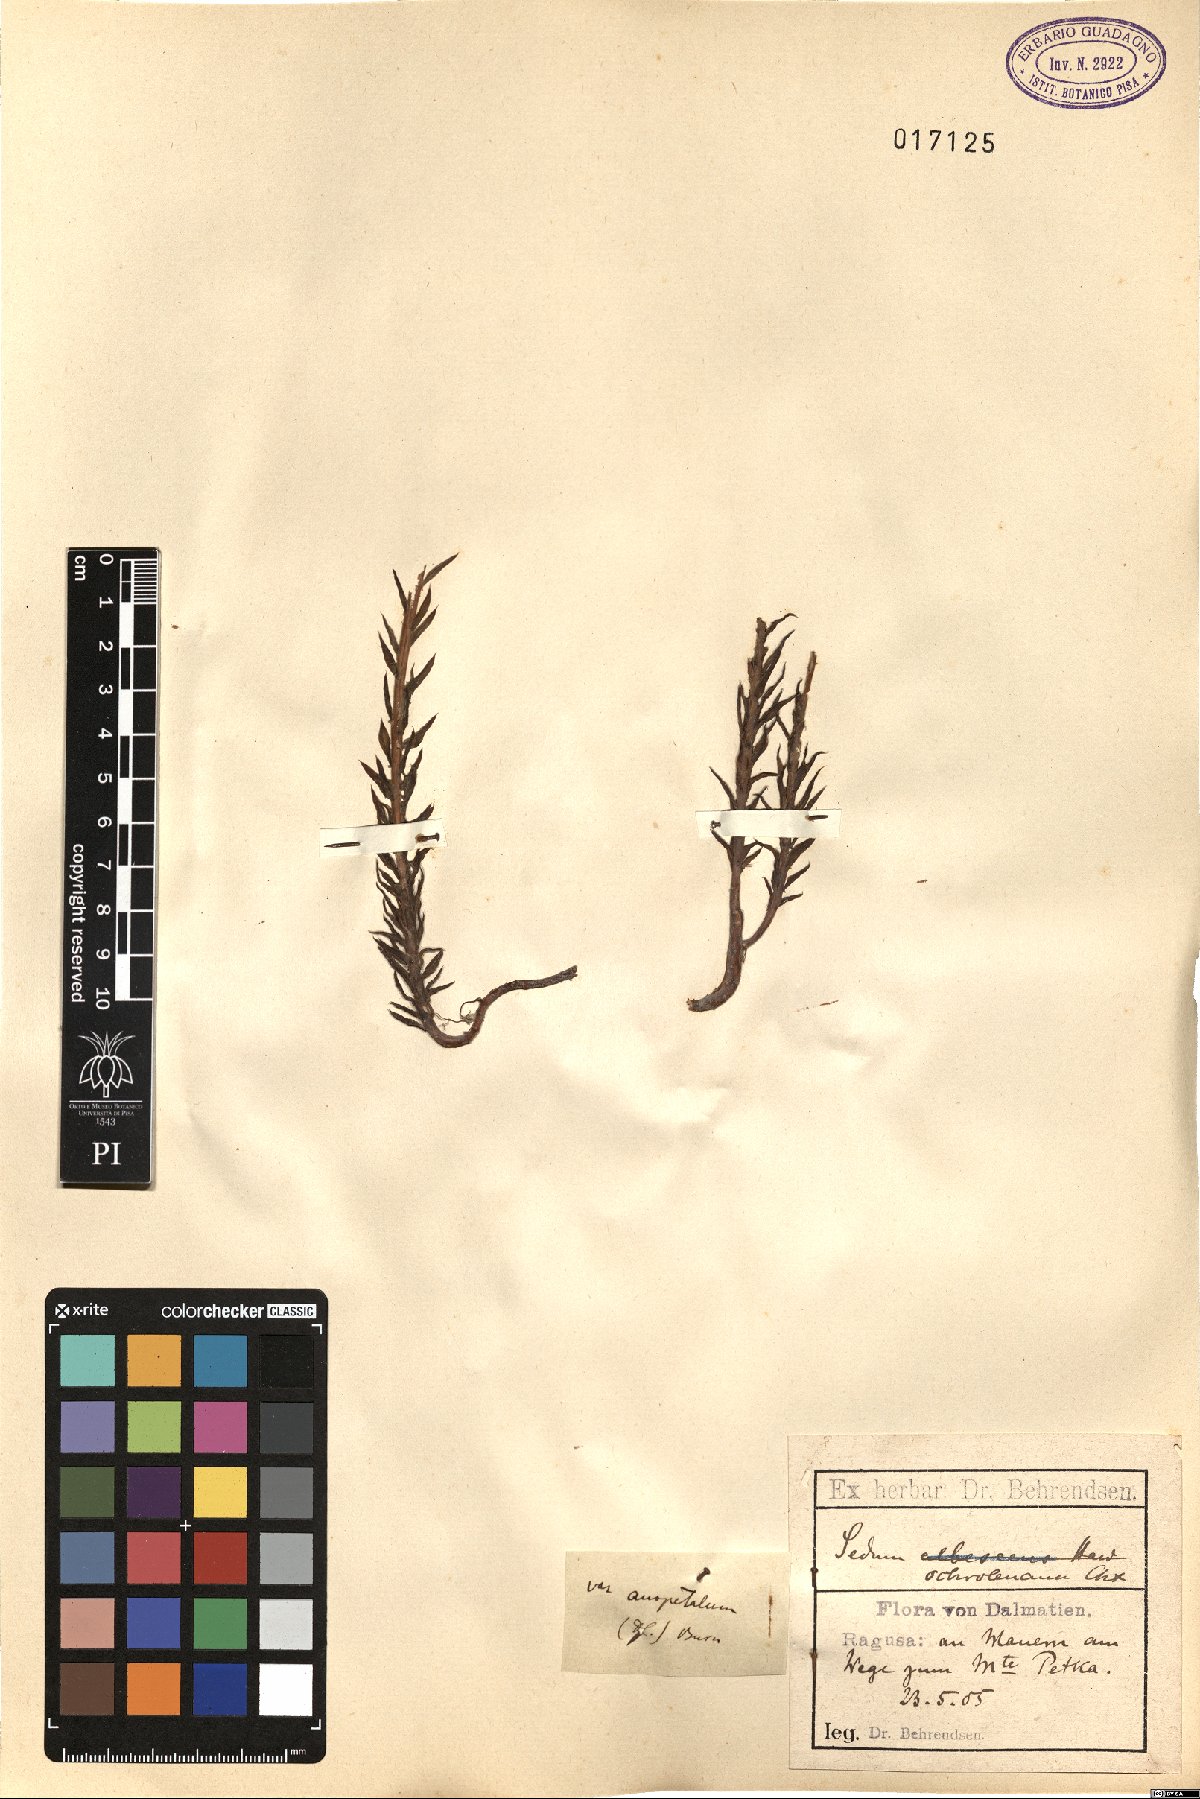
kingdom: Plantae
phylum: Tracheophyta
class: Magnoliopsida
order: Saxifragales
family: Crassulaceae
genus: Petrosedum
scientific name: Petrosedum ochroleucum
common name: European stonecrop
